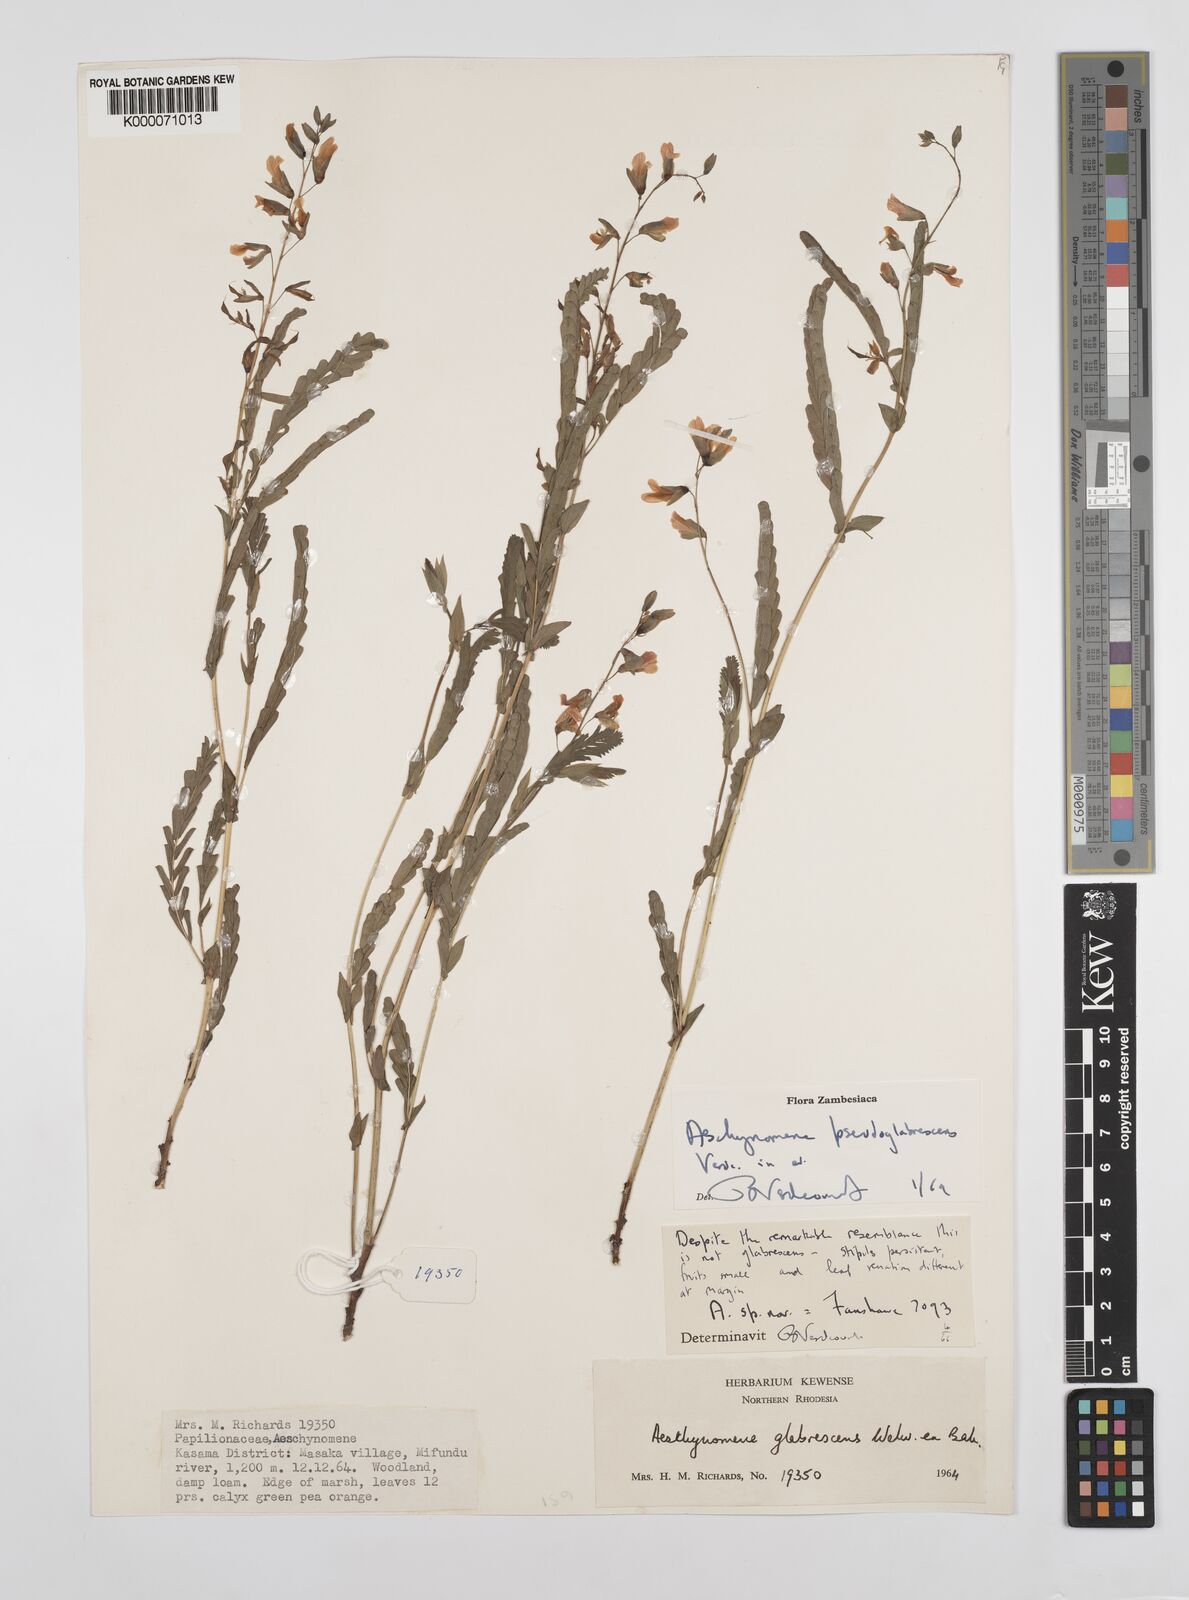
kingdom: Plantae
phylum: Tracheophyta
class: Magnoliopsida
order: Fabales
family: Fabaceae
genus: Aeschynomene
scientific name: Aeschynomene pseudoglabrescens
